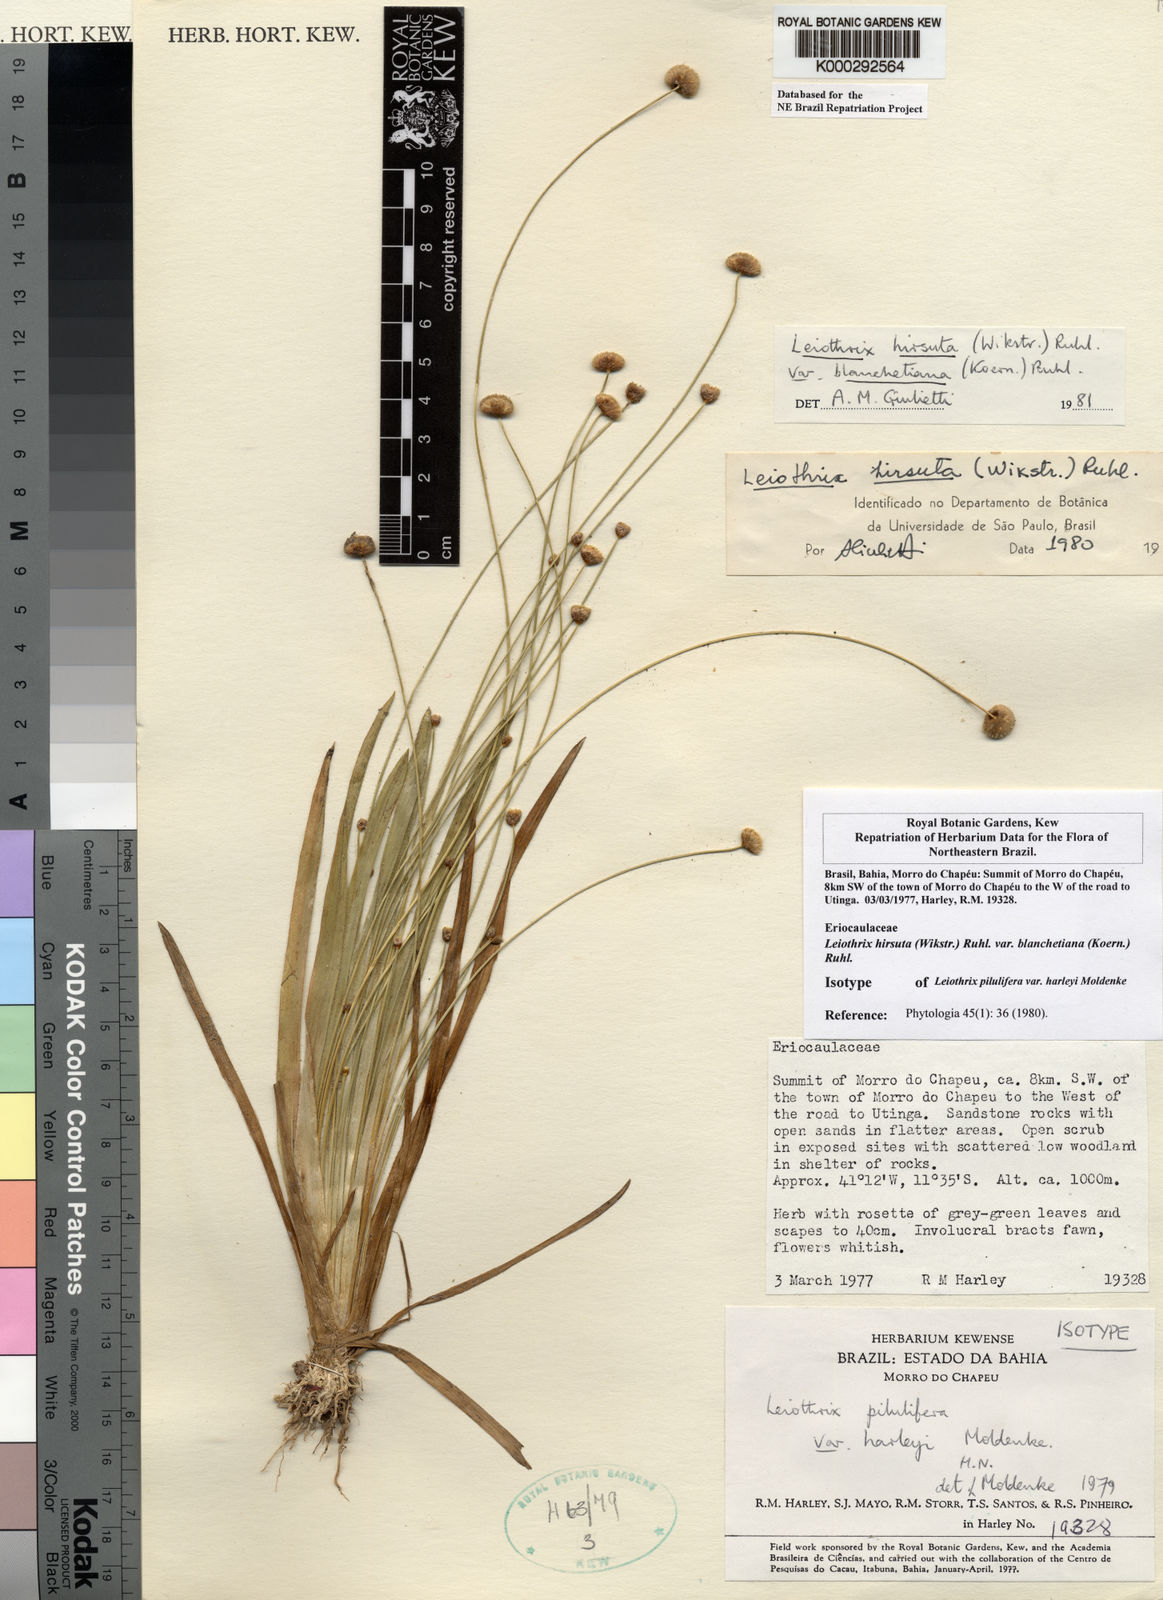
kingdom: Plantae
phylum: Tracheophyta
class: Liliopsida
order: Poales
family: Eriocaulaceae
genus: Leiothrix
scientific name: Leiothrix hirsuta
